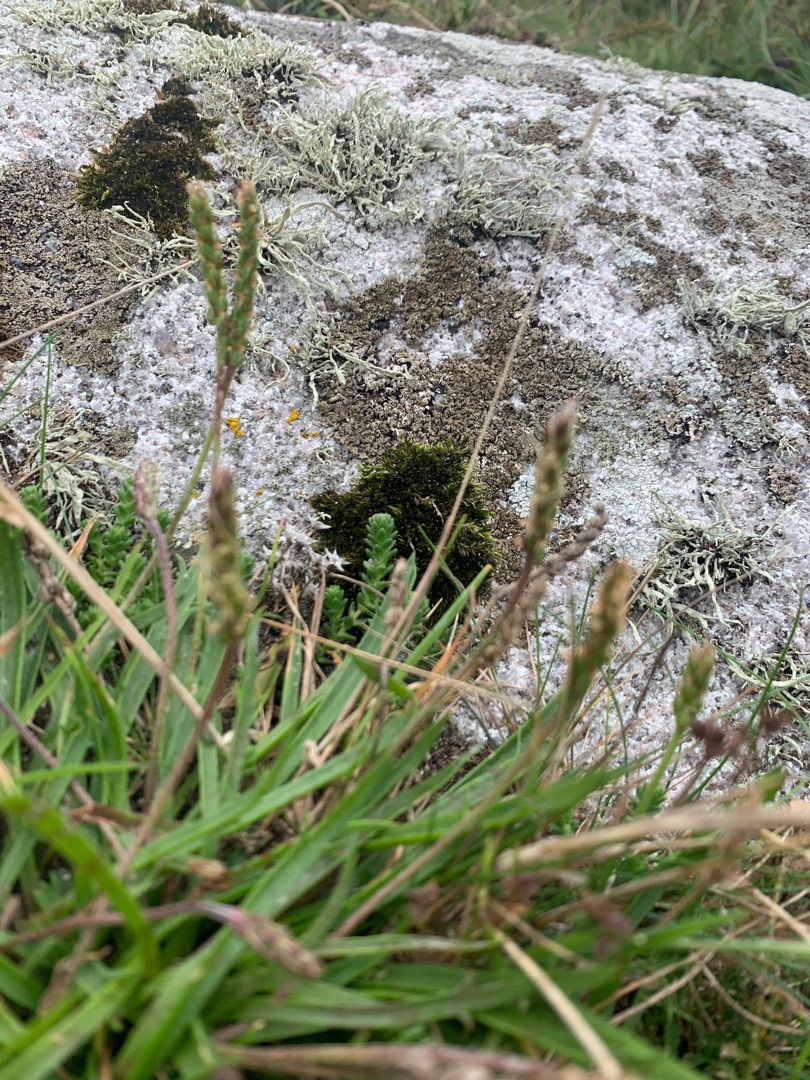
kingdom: Plantae
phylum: Tracheophyta
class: Magnoliopsida
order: Lamiales
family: Plantaginaceae
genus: Plantago
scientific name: Plantago maritima
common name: Strand-vejbred
